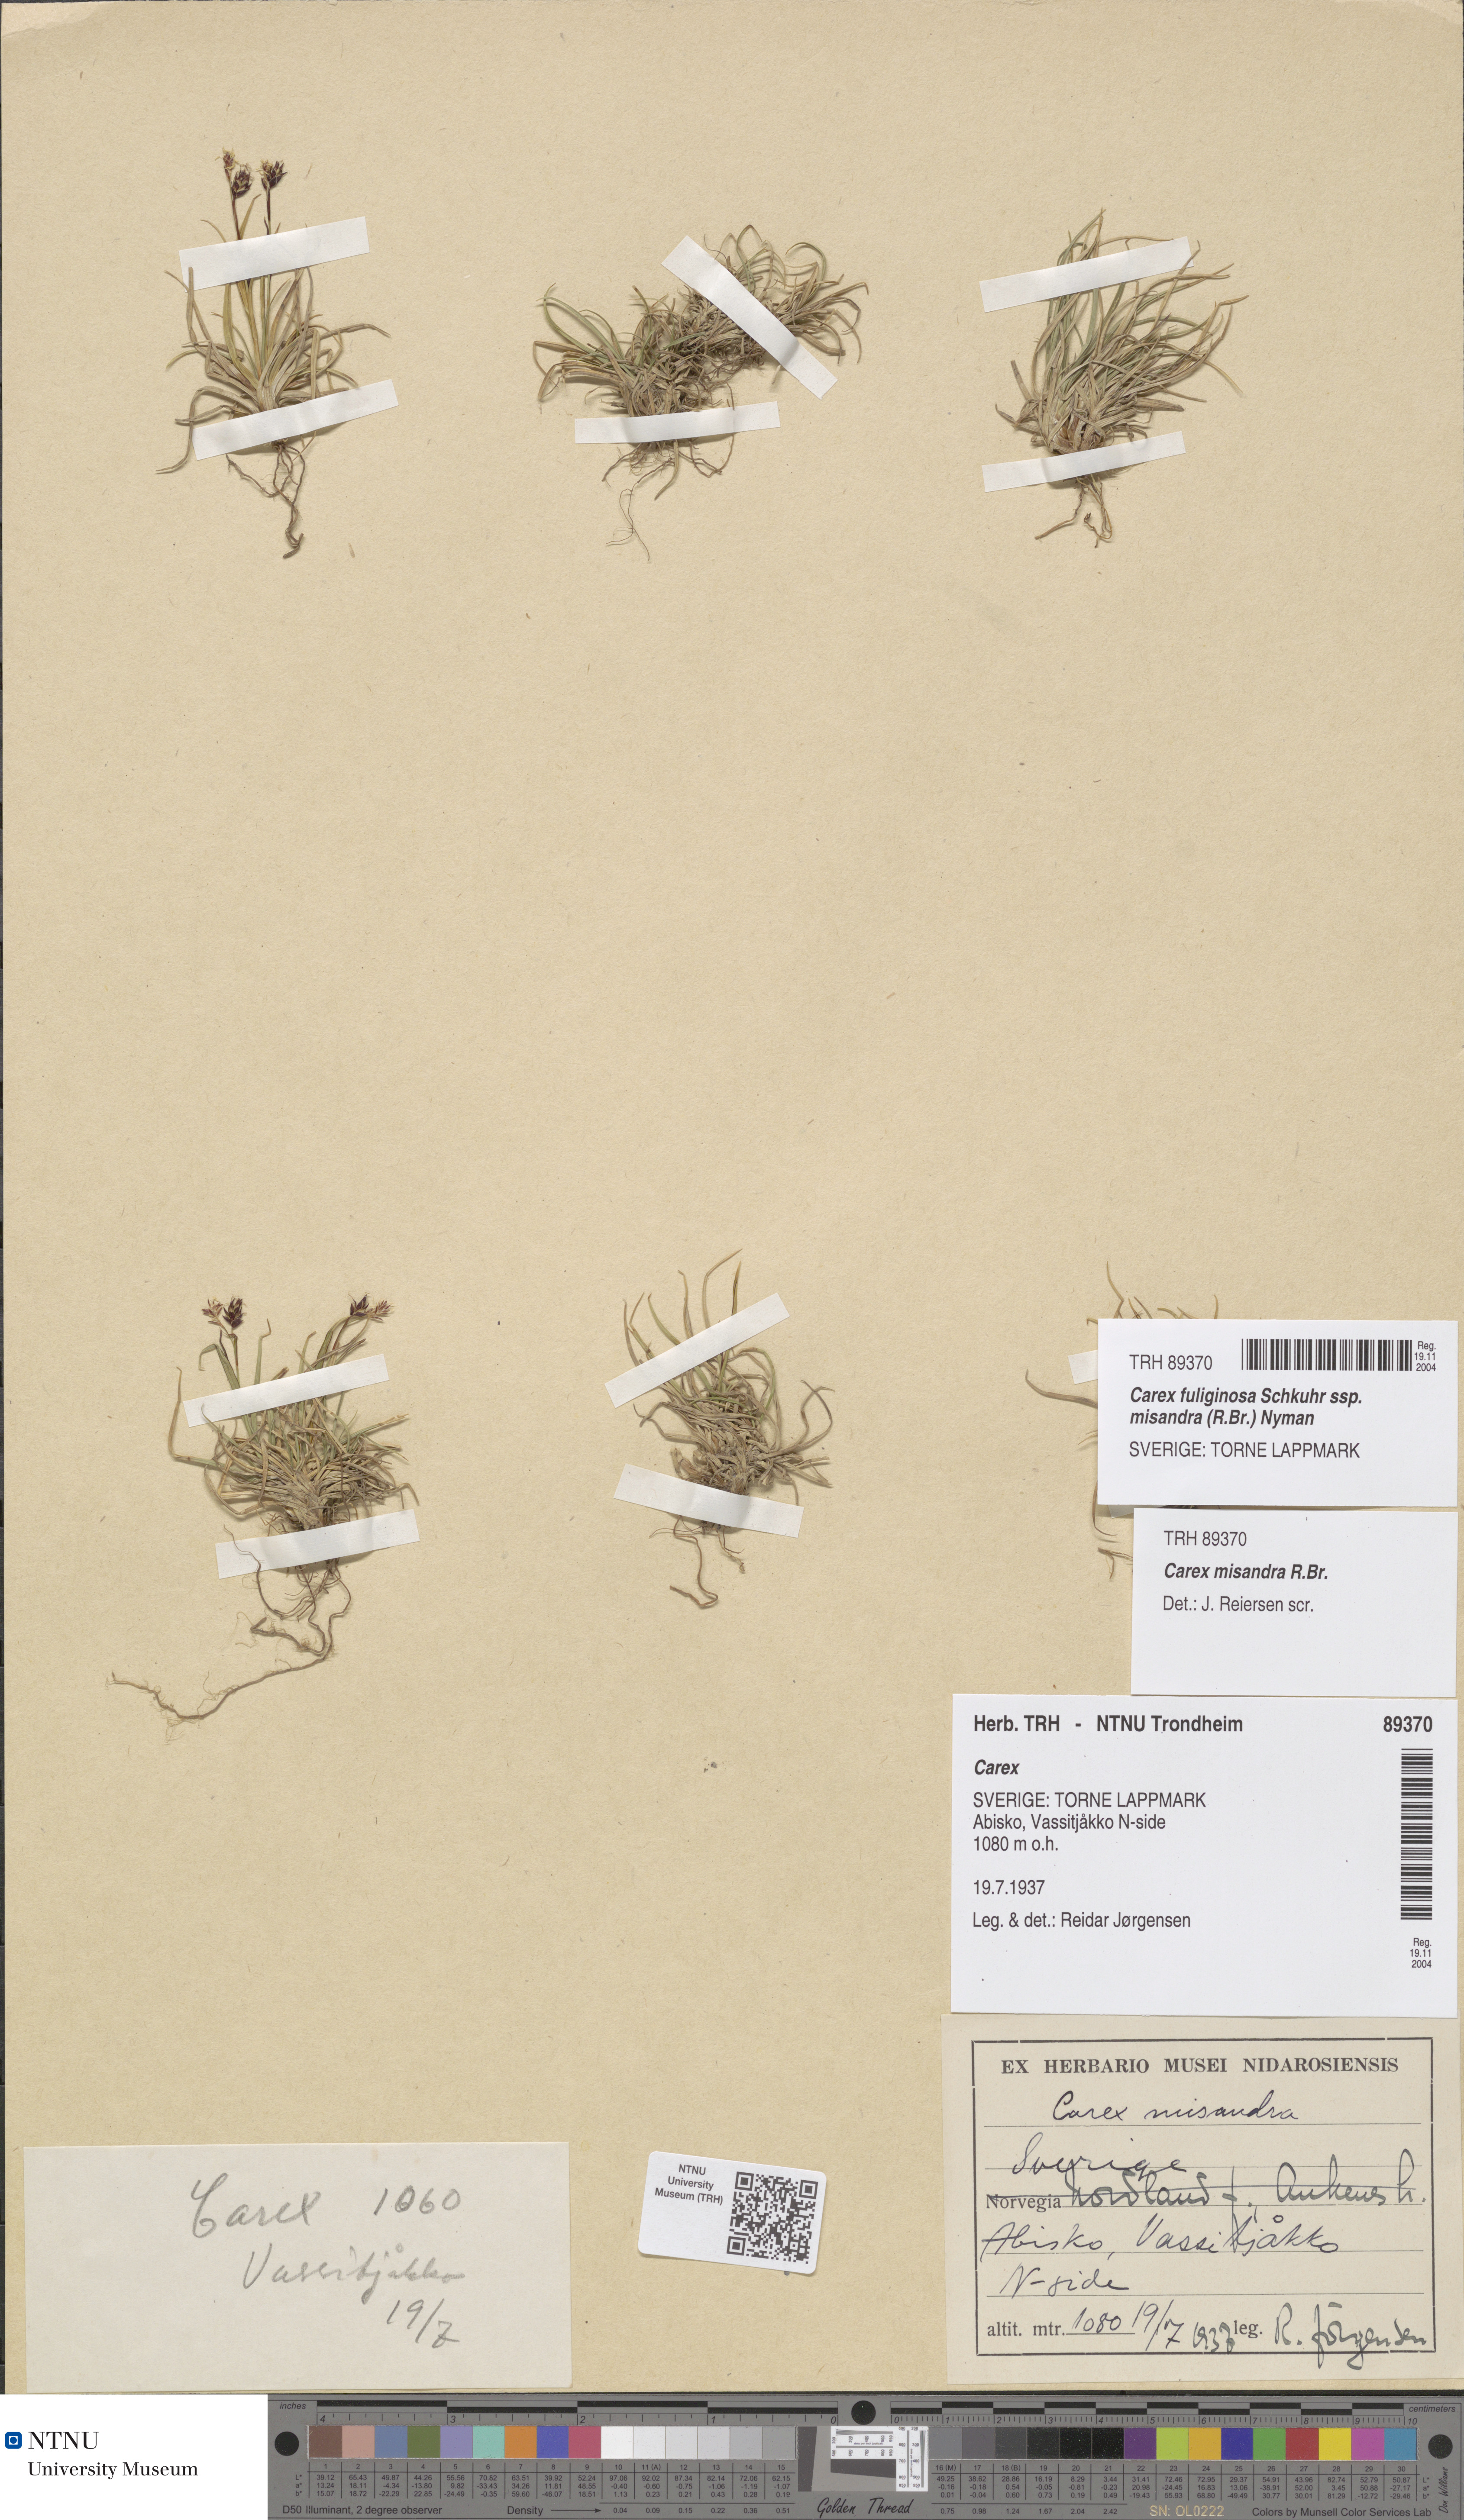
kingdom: Plantae
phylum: Tracheophyta
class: Liliopsida
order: Poales
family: Cyperaceae
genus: Carex
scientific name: Carex fuliginosa
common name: Few-flowered sedge
